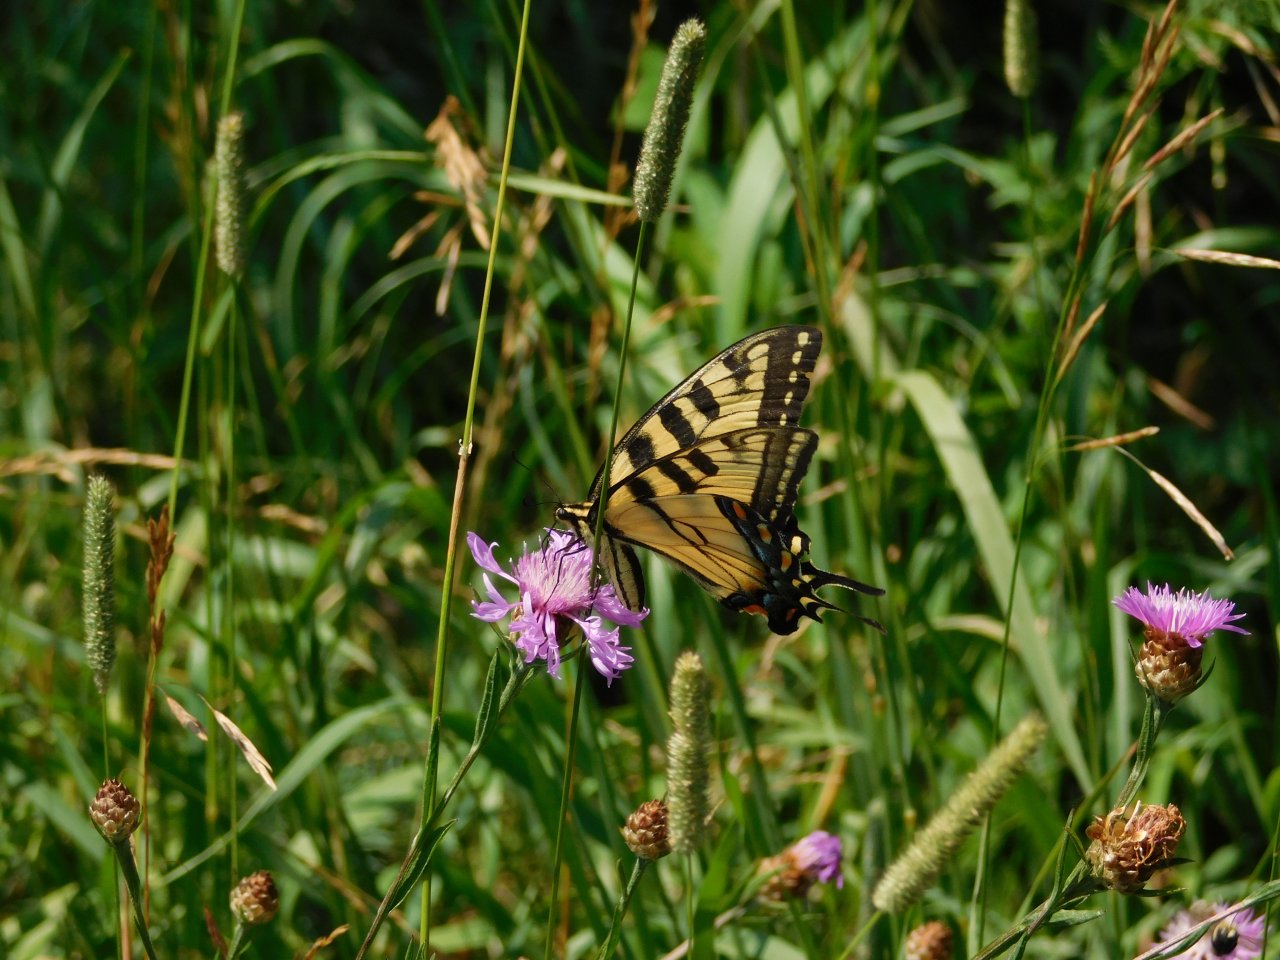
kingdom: Animalia
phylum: Arthropoda
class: Insecta
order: Lepidoptera
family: Papilionidae
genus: Pterourus
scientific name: Pterourus glaucus
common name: Eastern Tiger Swallowtail
